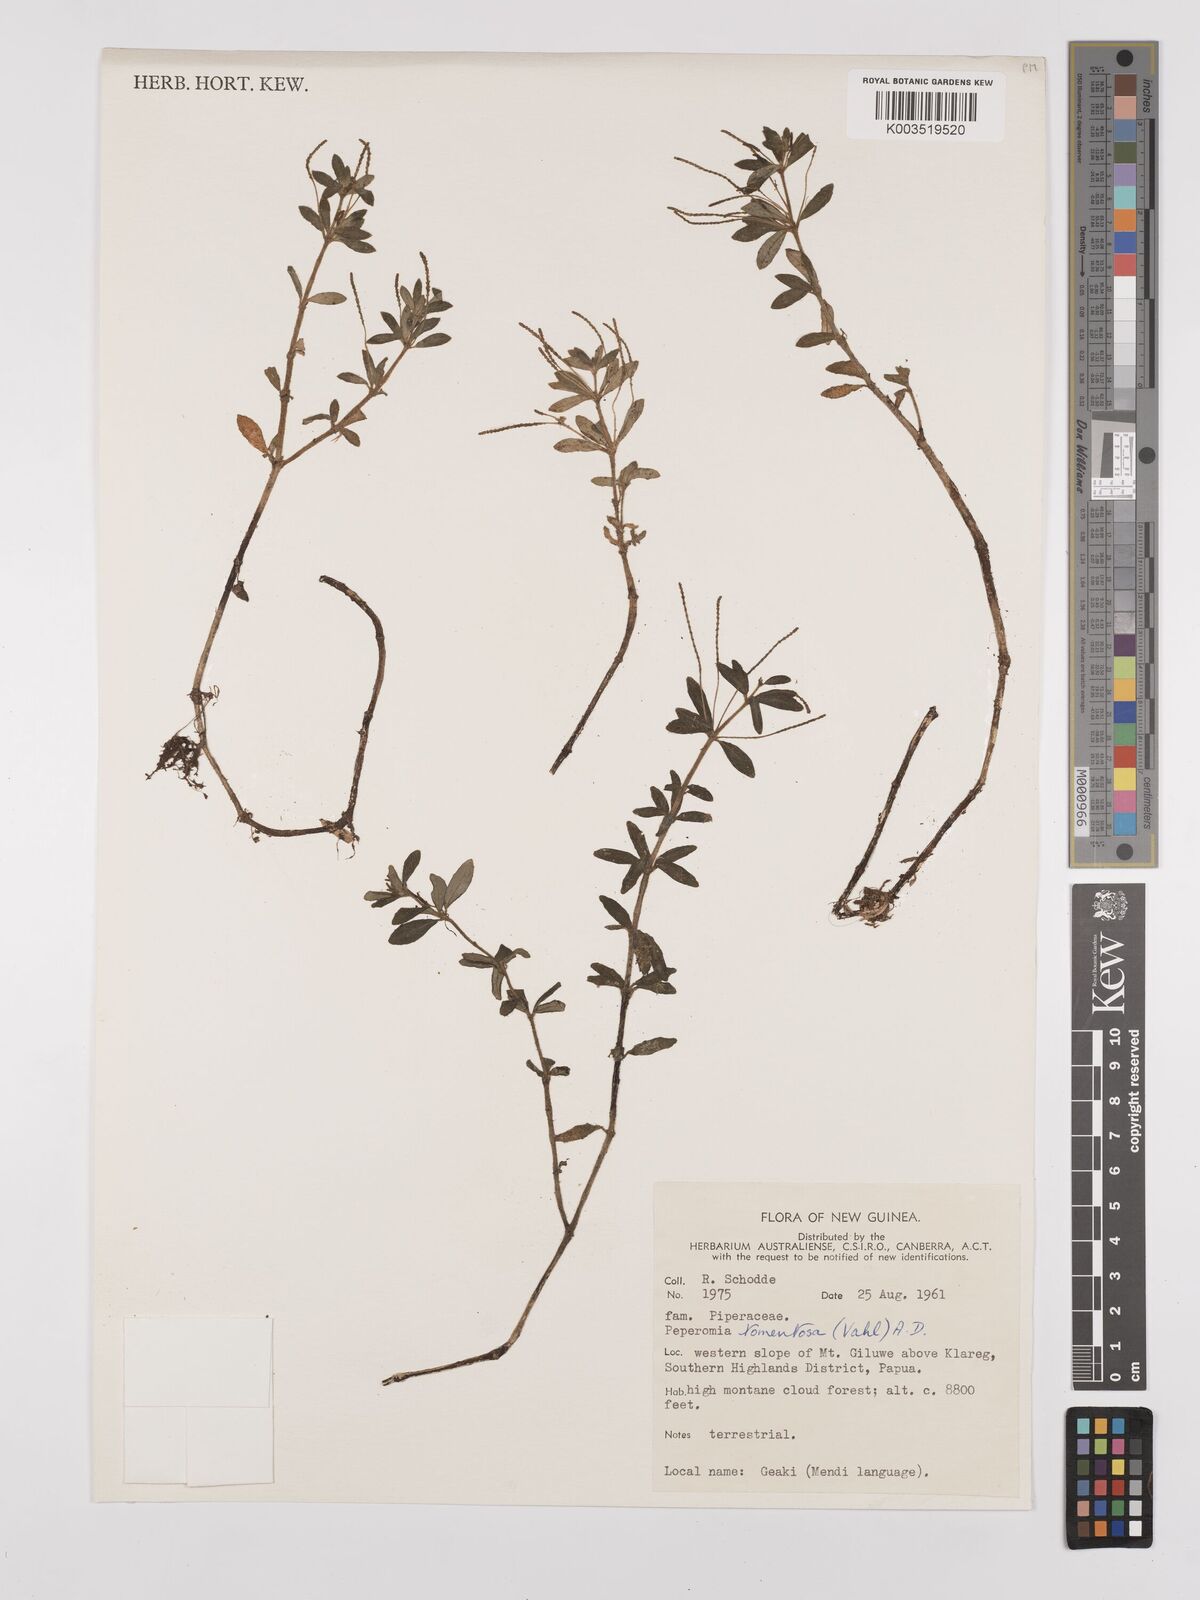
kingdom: Plantae
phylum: Tracheophyta
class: Magnoliopsida
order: Piperales
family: Piperaceae
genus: Peperomia
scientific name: Peperomia tomentosa
